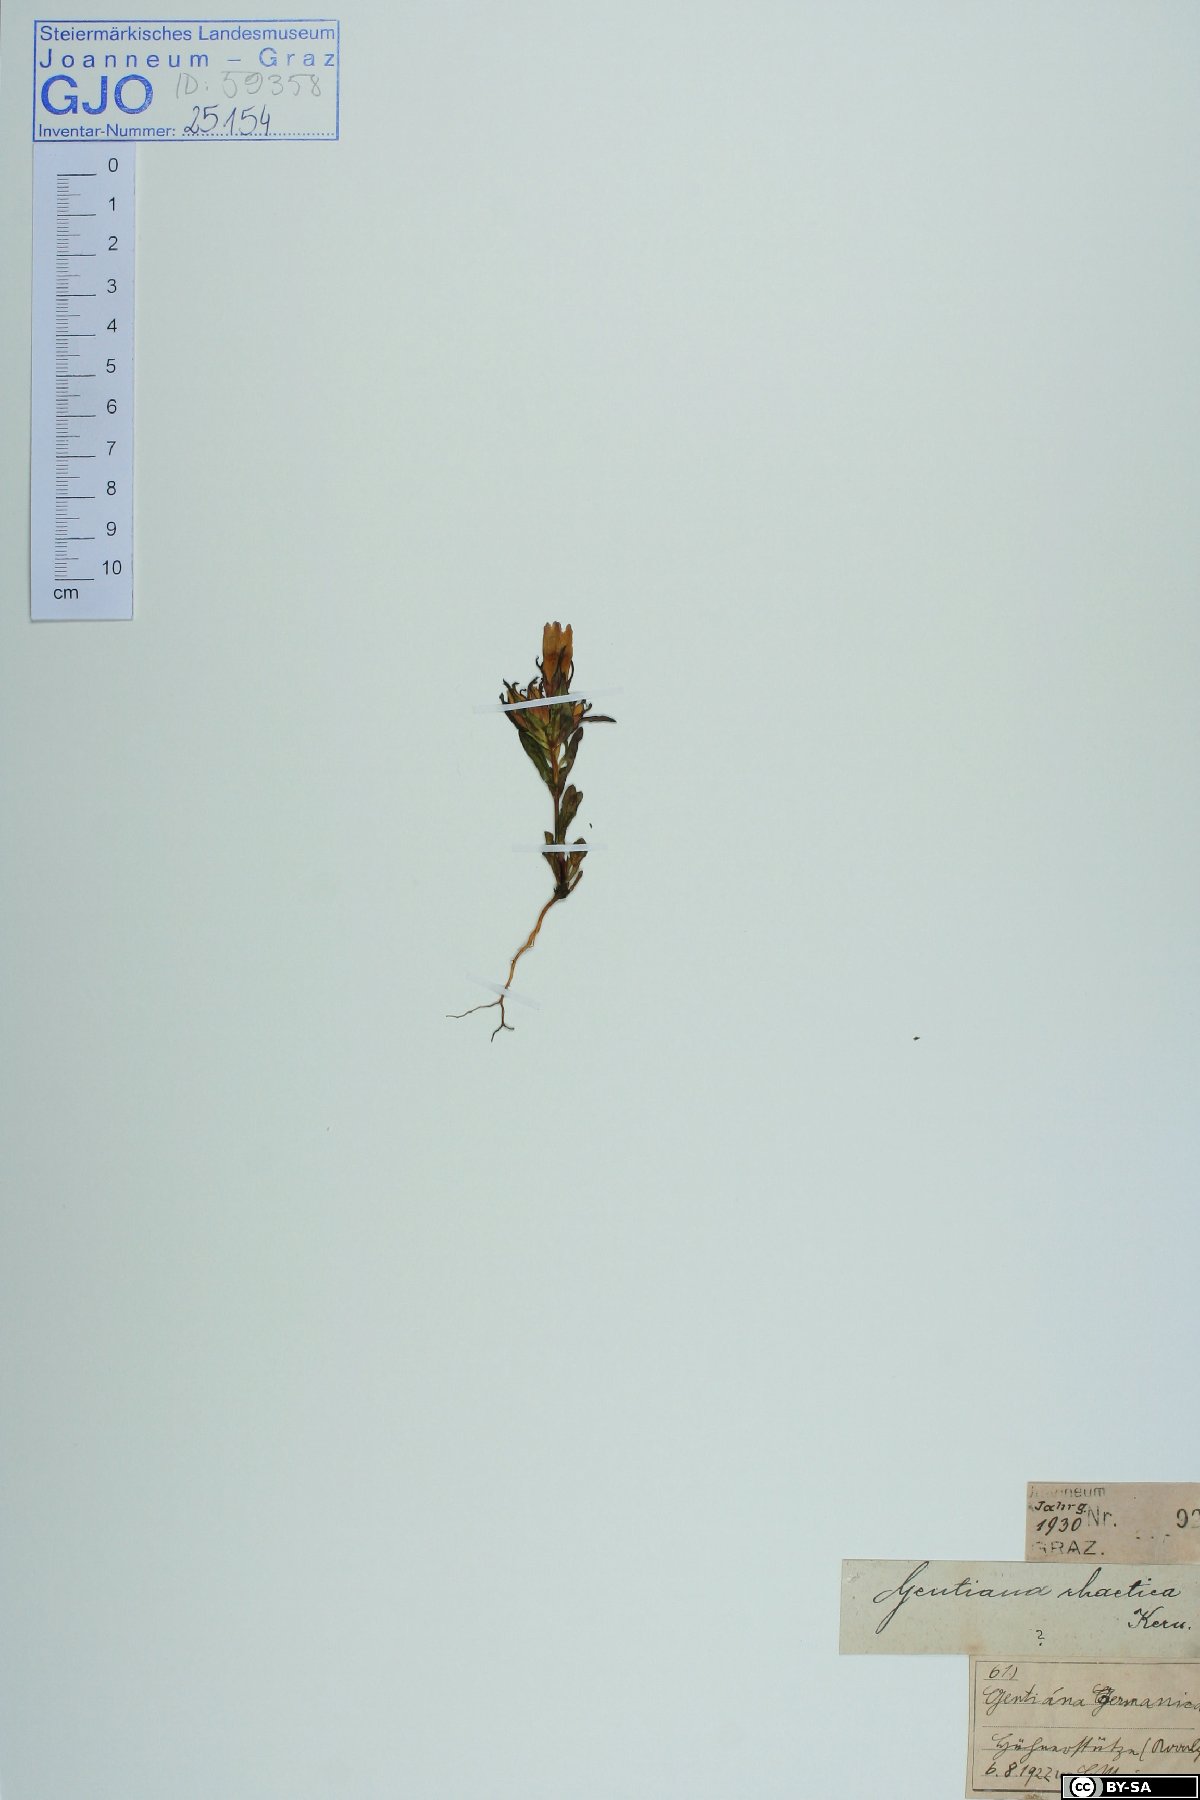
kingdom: Plantae
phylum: Tracheophyta
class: Magnoliopsida
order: Gentianales
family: Gentianaceae
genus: Gentianella
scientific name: Gentianella rhaetica
